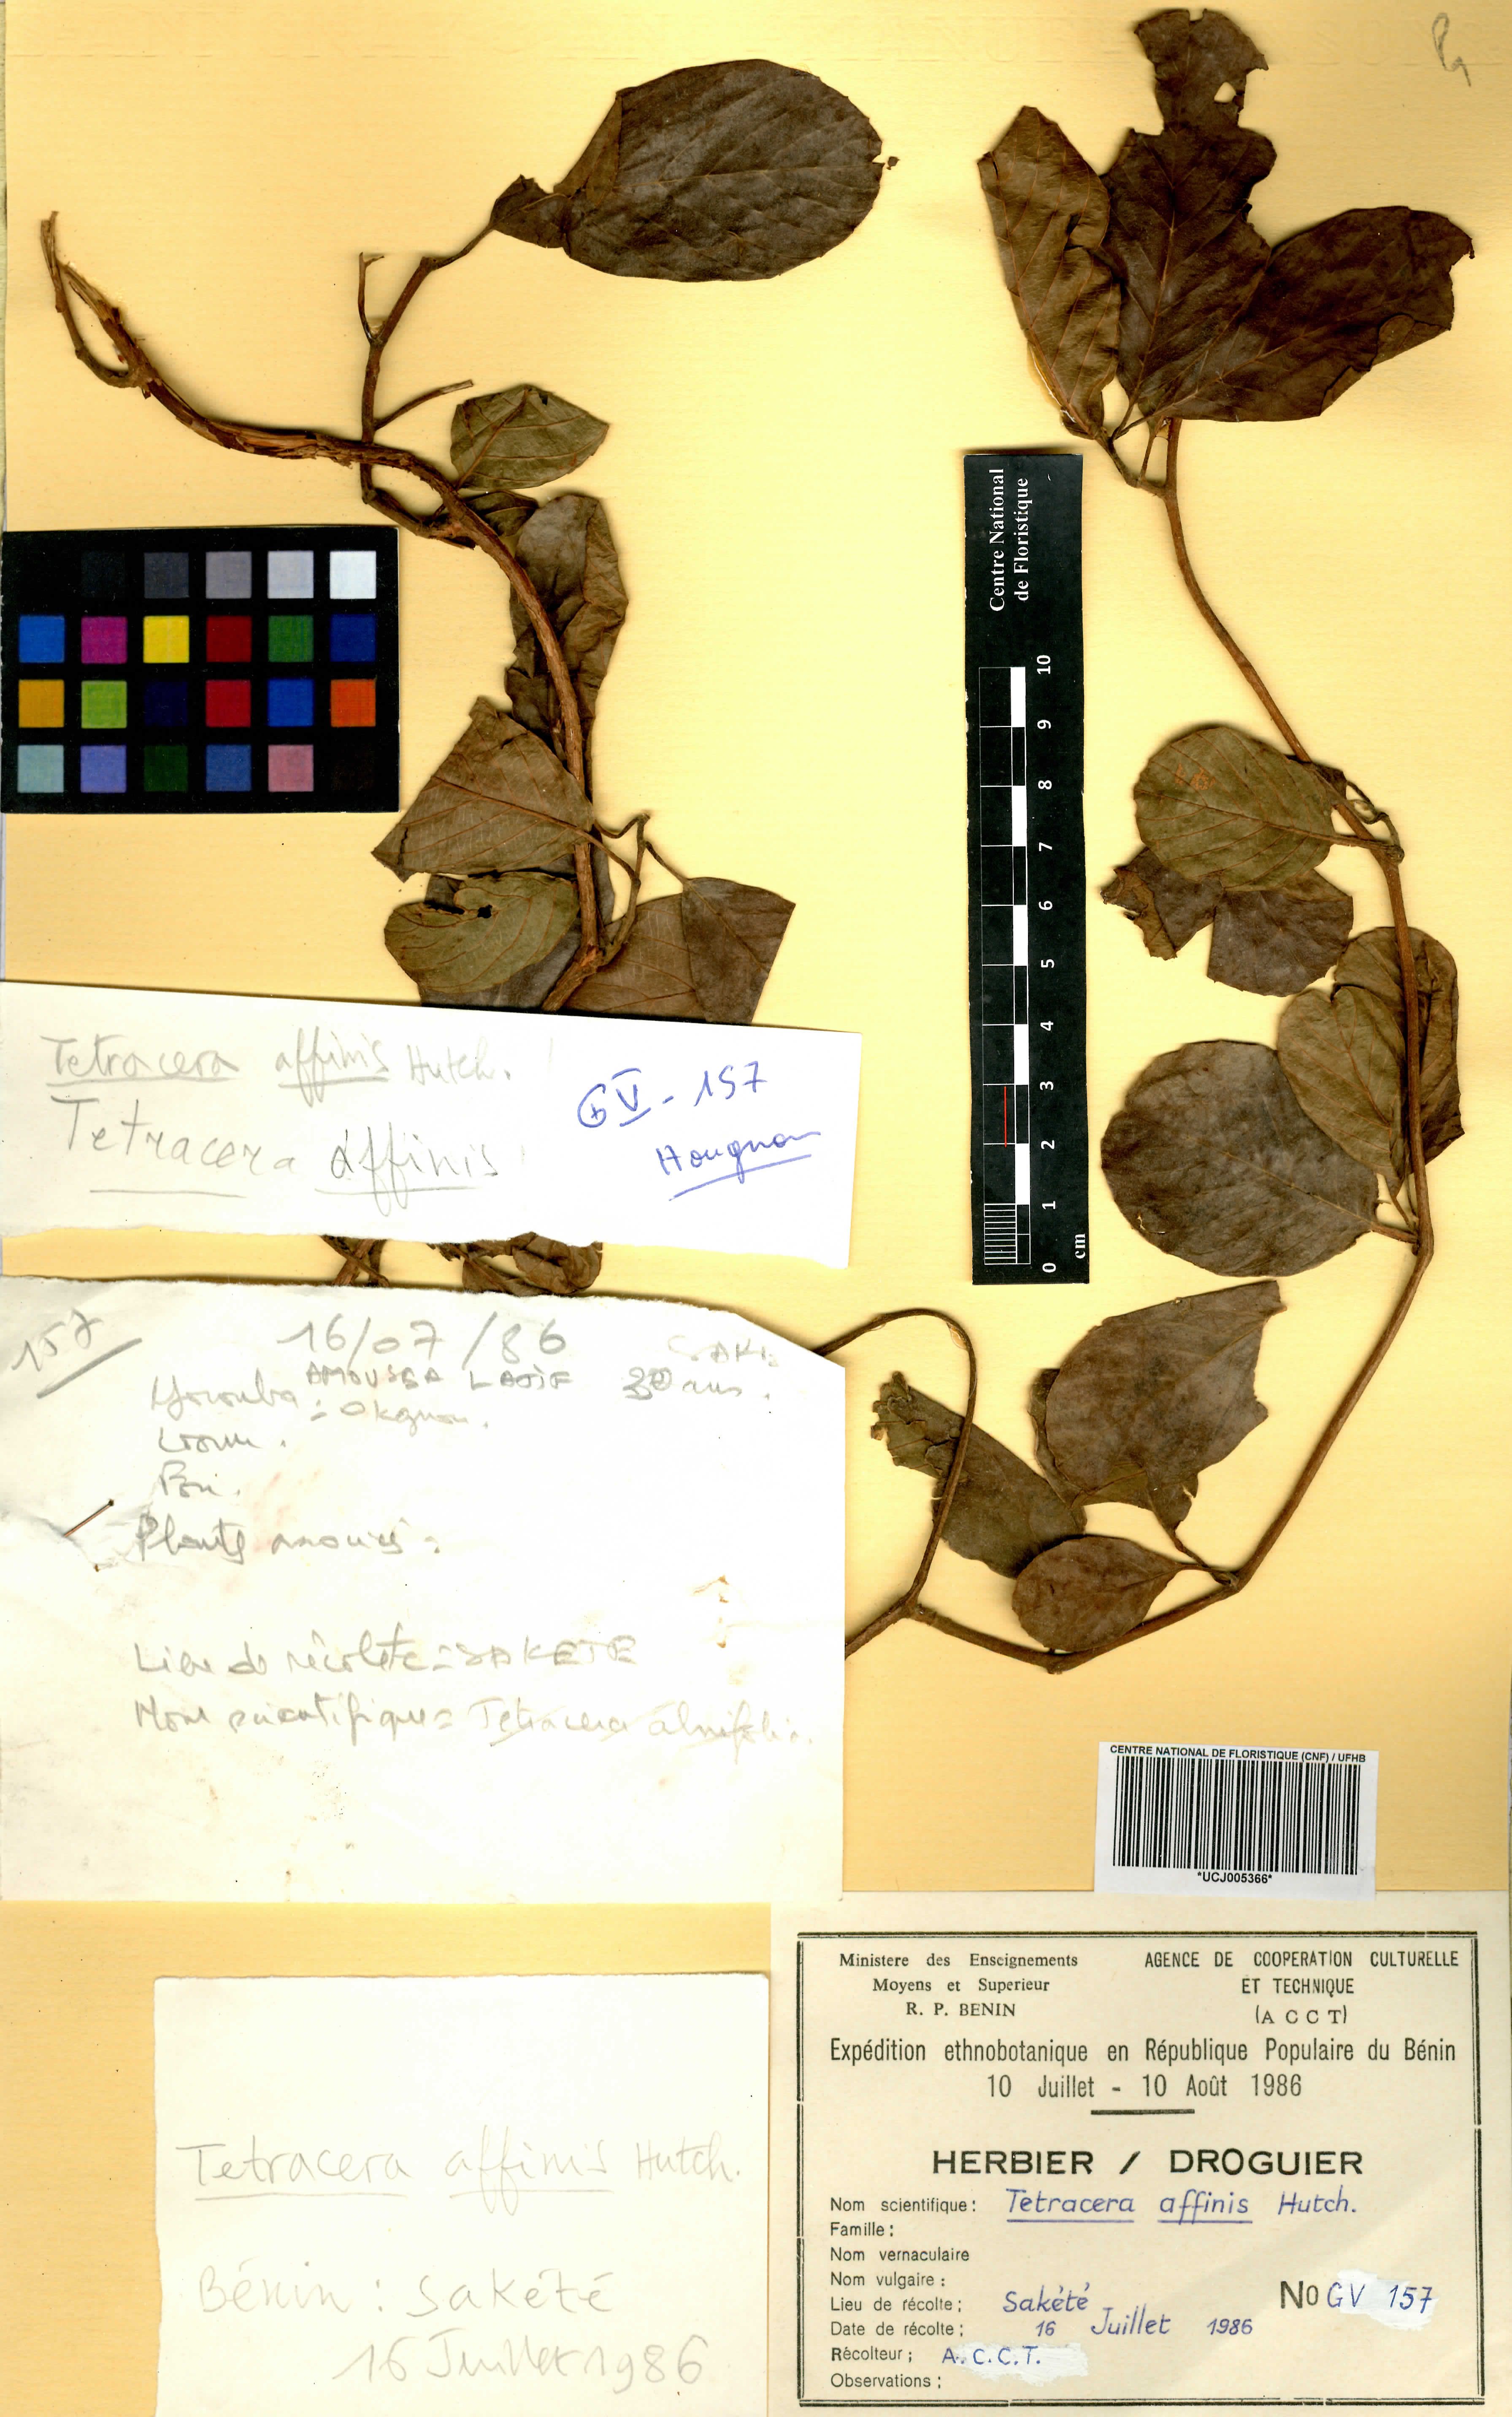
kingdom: Plantae
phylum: Tracheophyta
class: Magnoliopsida
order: Dilleniales
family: Dilleniaceae
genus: Tetracera
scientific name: Tetracera affinis
